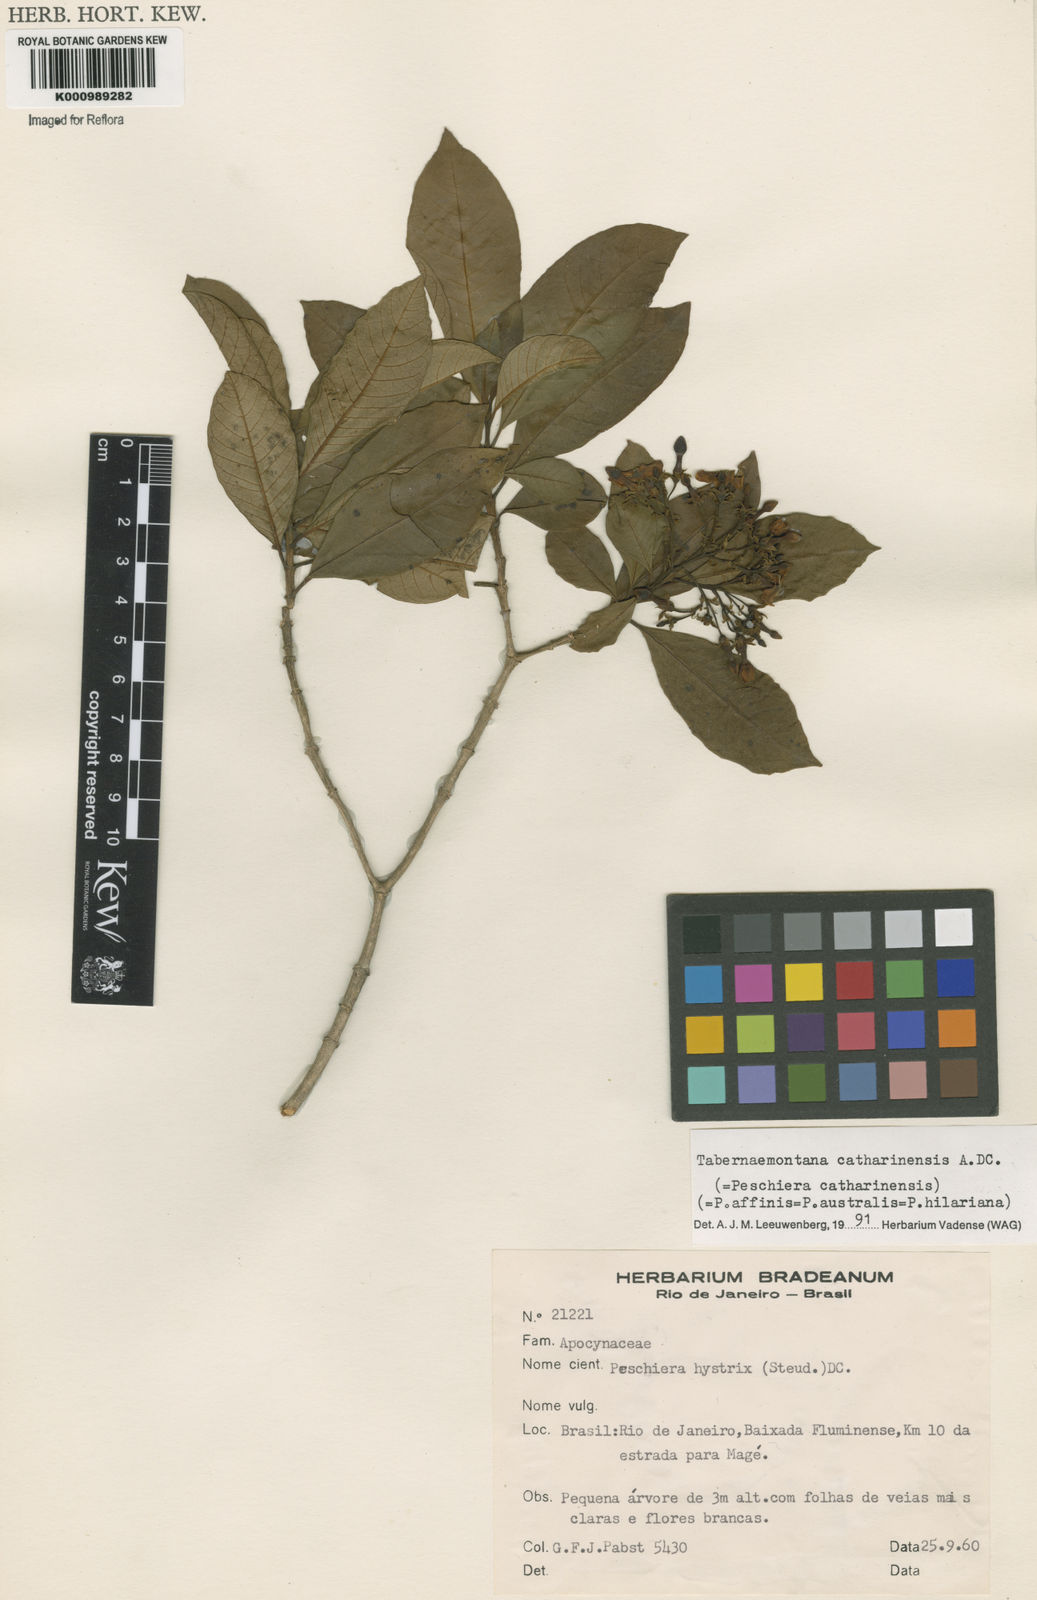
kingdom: Plantae
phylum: Tracheophyta
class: Magnoliopsida
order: Gentianales
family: Apocynaceae
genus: Tabernaemontana
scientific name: Tabernaemontana catharinensis
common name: Pinwheel-flower
